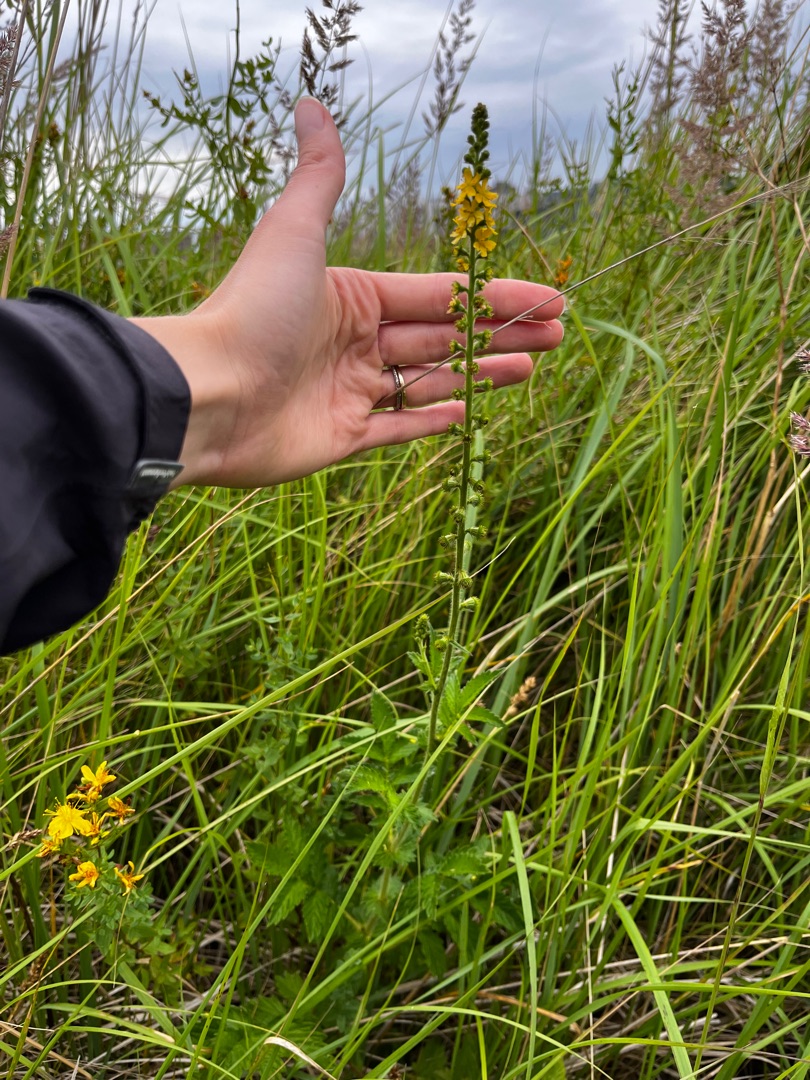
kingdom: Plantae
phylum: Tracheophyta
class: Magnoliopsida
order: Rosales
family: Rosaceae
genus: Agrimonia
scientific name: Agrimonia eupatoria
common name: Almindelig agermåne
